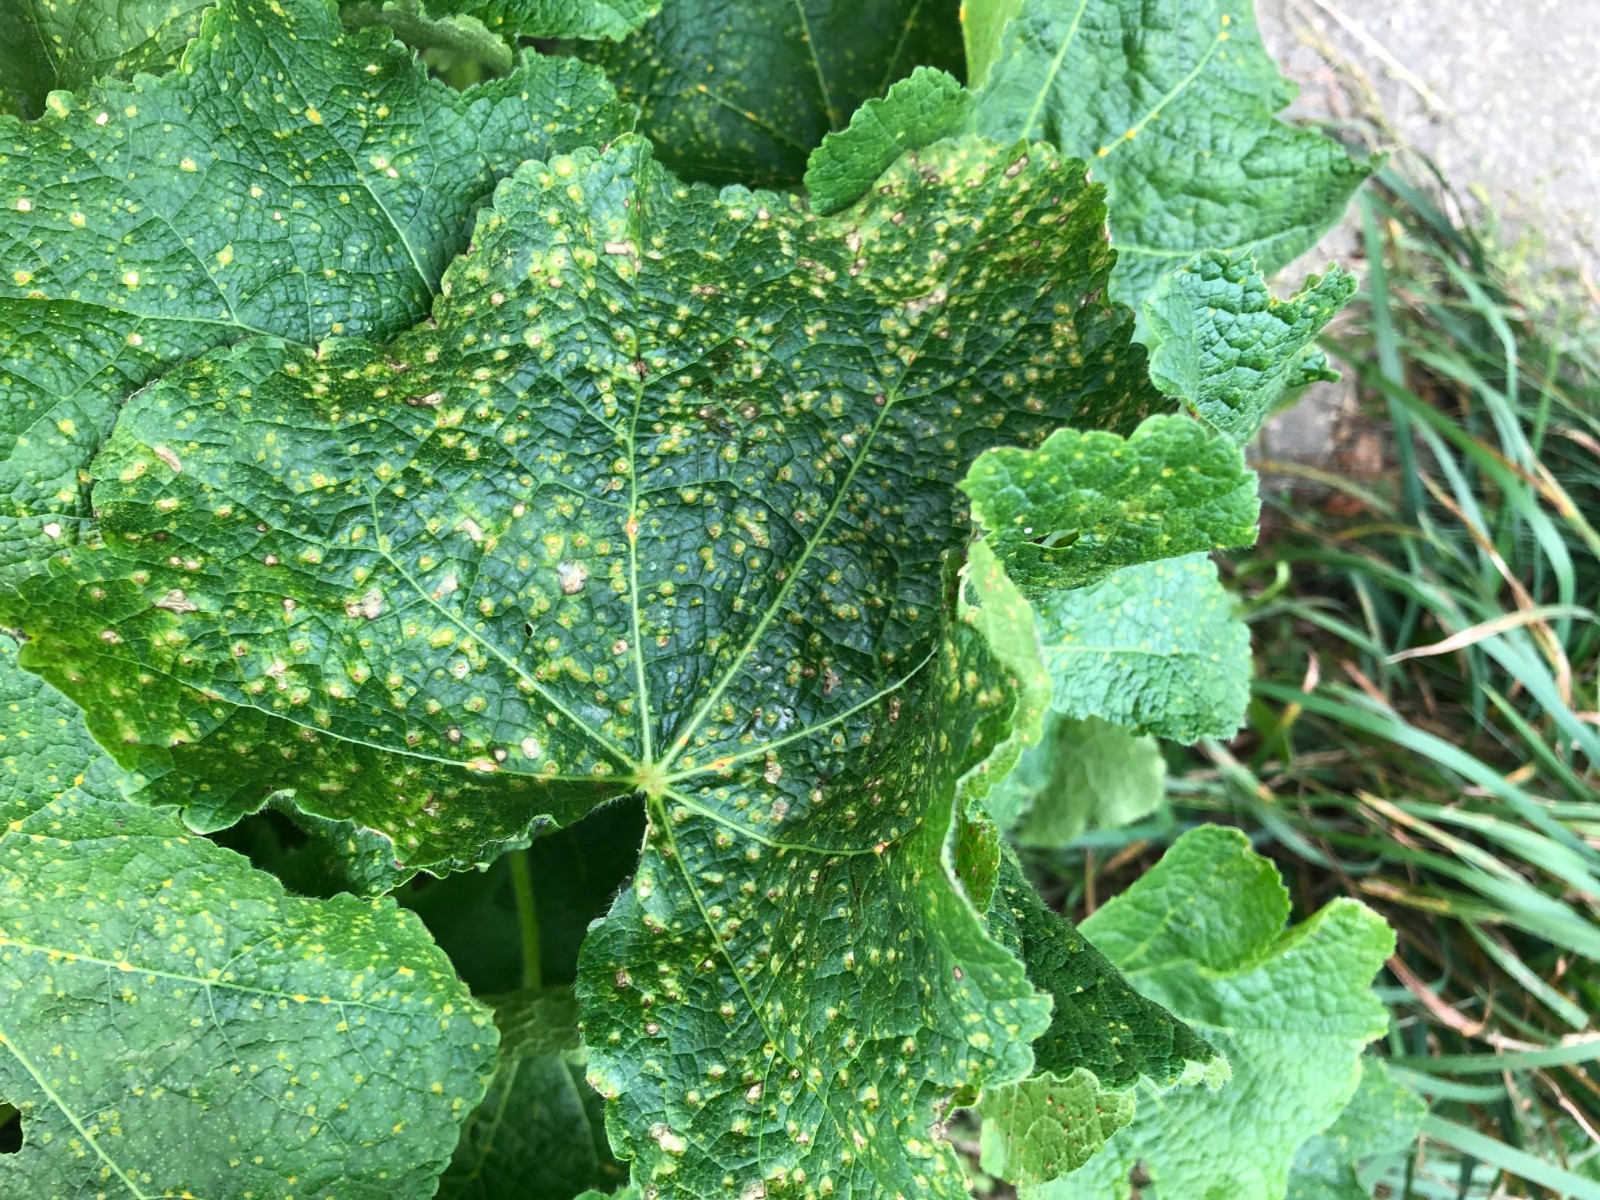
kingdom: Fungi
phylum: Basidiomycota
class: Pucciniomycetes
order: Pucciniales
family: Pucciniaceae
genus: Puccinia
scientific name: Puccinia malvacearum
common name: stokrose-tvecellerust
